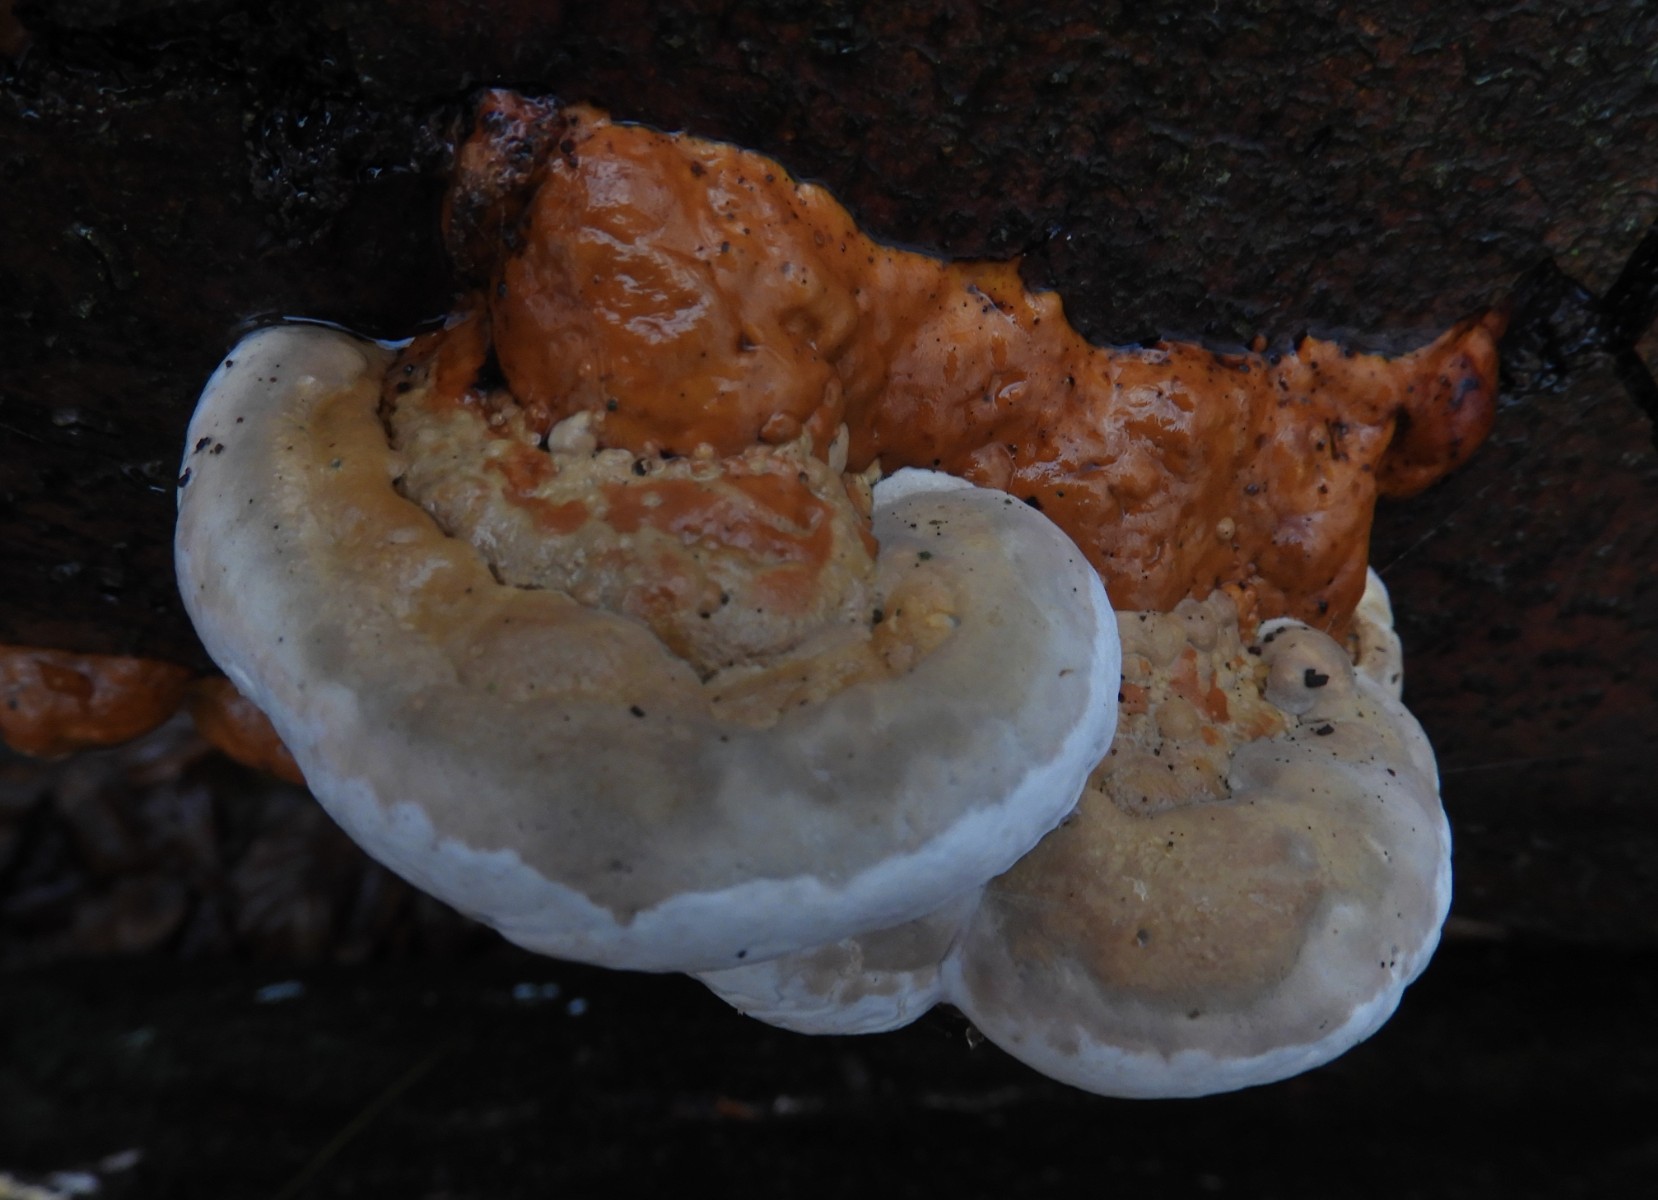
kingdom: Fungi
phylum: Basidiomycota
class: Agaricomycetes
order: Polyporales
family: Fomitopsidaceae
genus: Fomitopsis
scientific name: Fomitopsis pinicola
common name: randbæltet hovporesvamp
